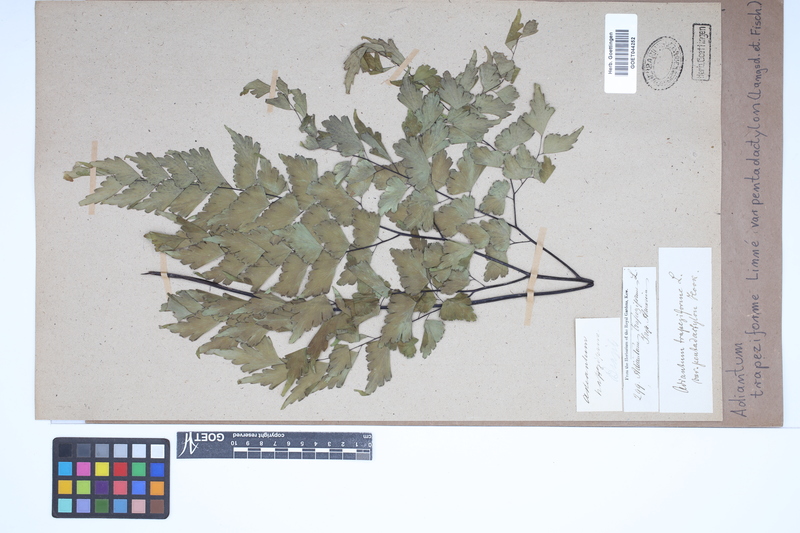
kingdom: Plantae
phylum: Tracheophyta
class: Polypodiopsida
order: Polypodiales
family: Pteridaceae
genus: Adiantum
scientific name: Adiantum pentadactylon
